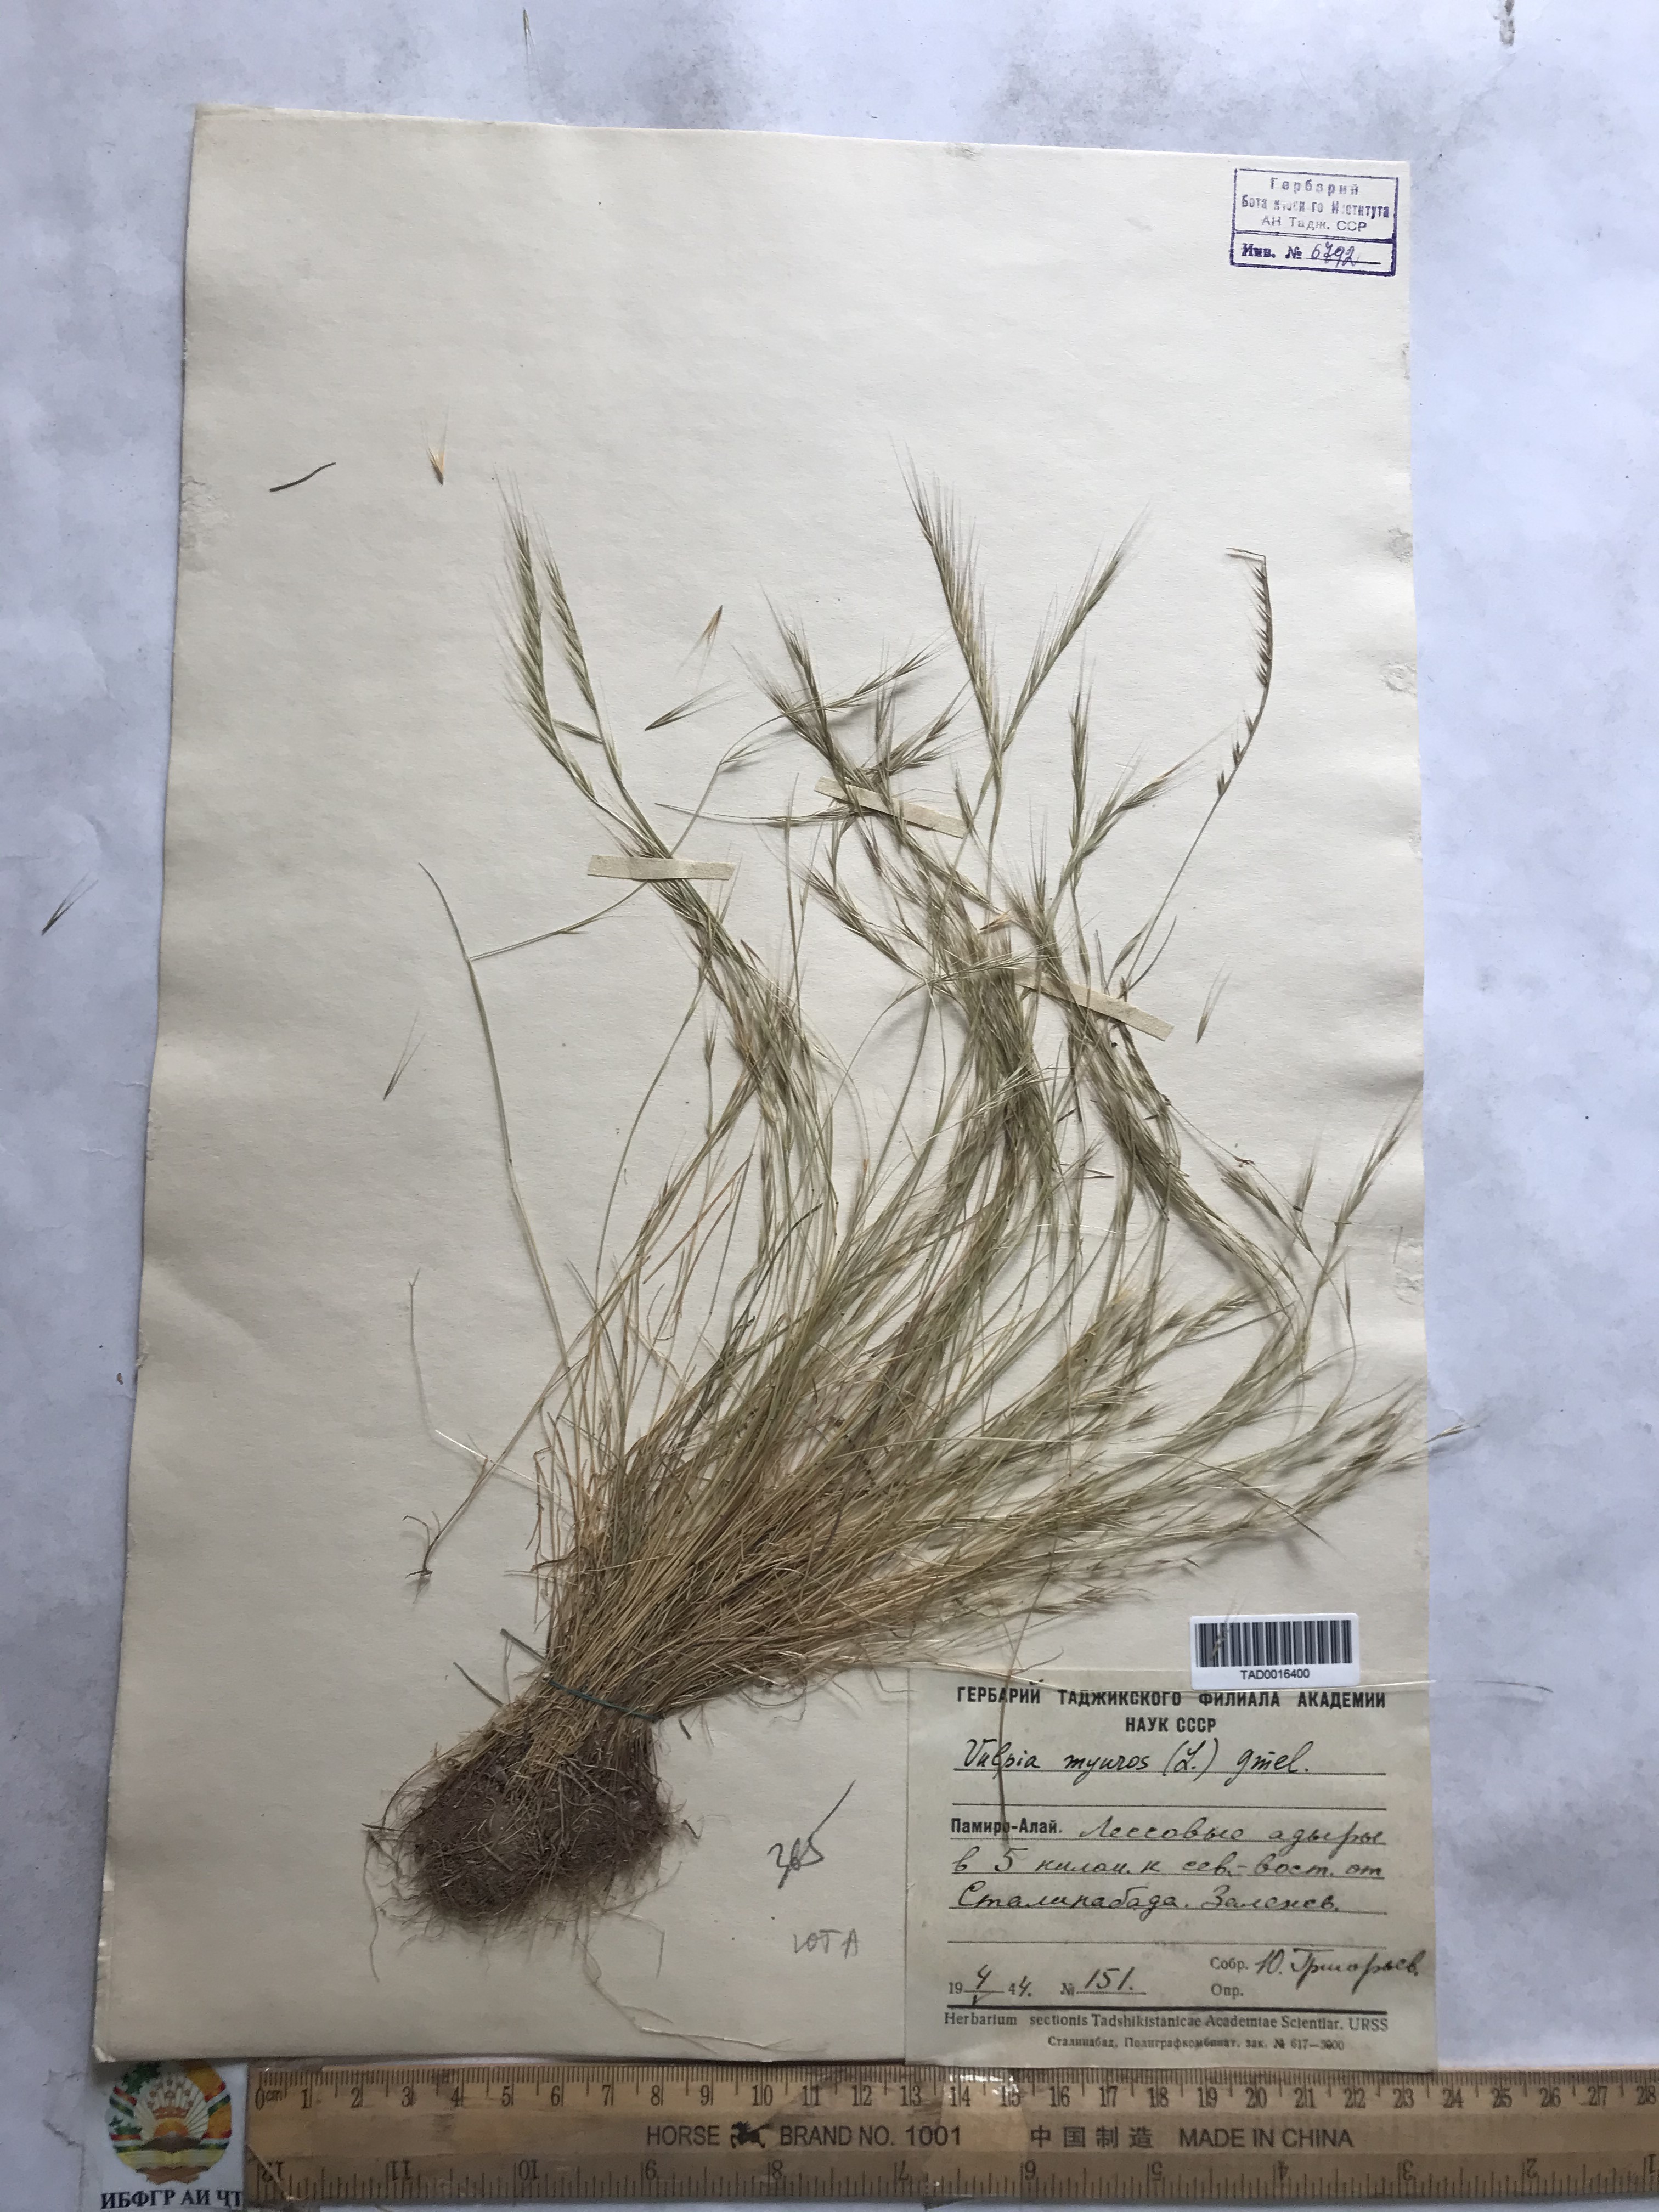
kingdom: Plantae
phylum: Tracheophyta
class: Liliopsida
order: Poales
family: Poaceae
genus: Festuca
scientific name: Festuca myuros
